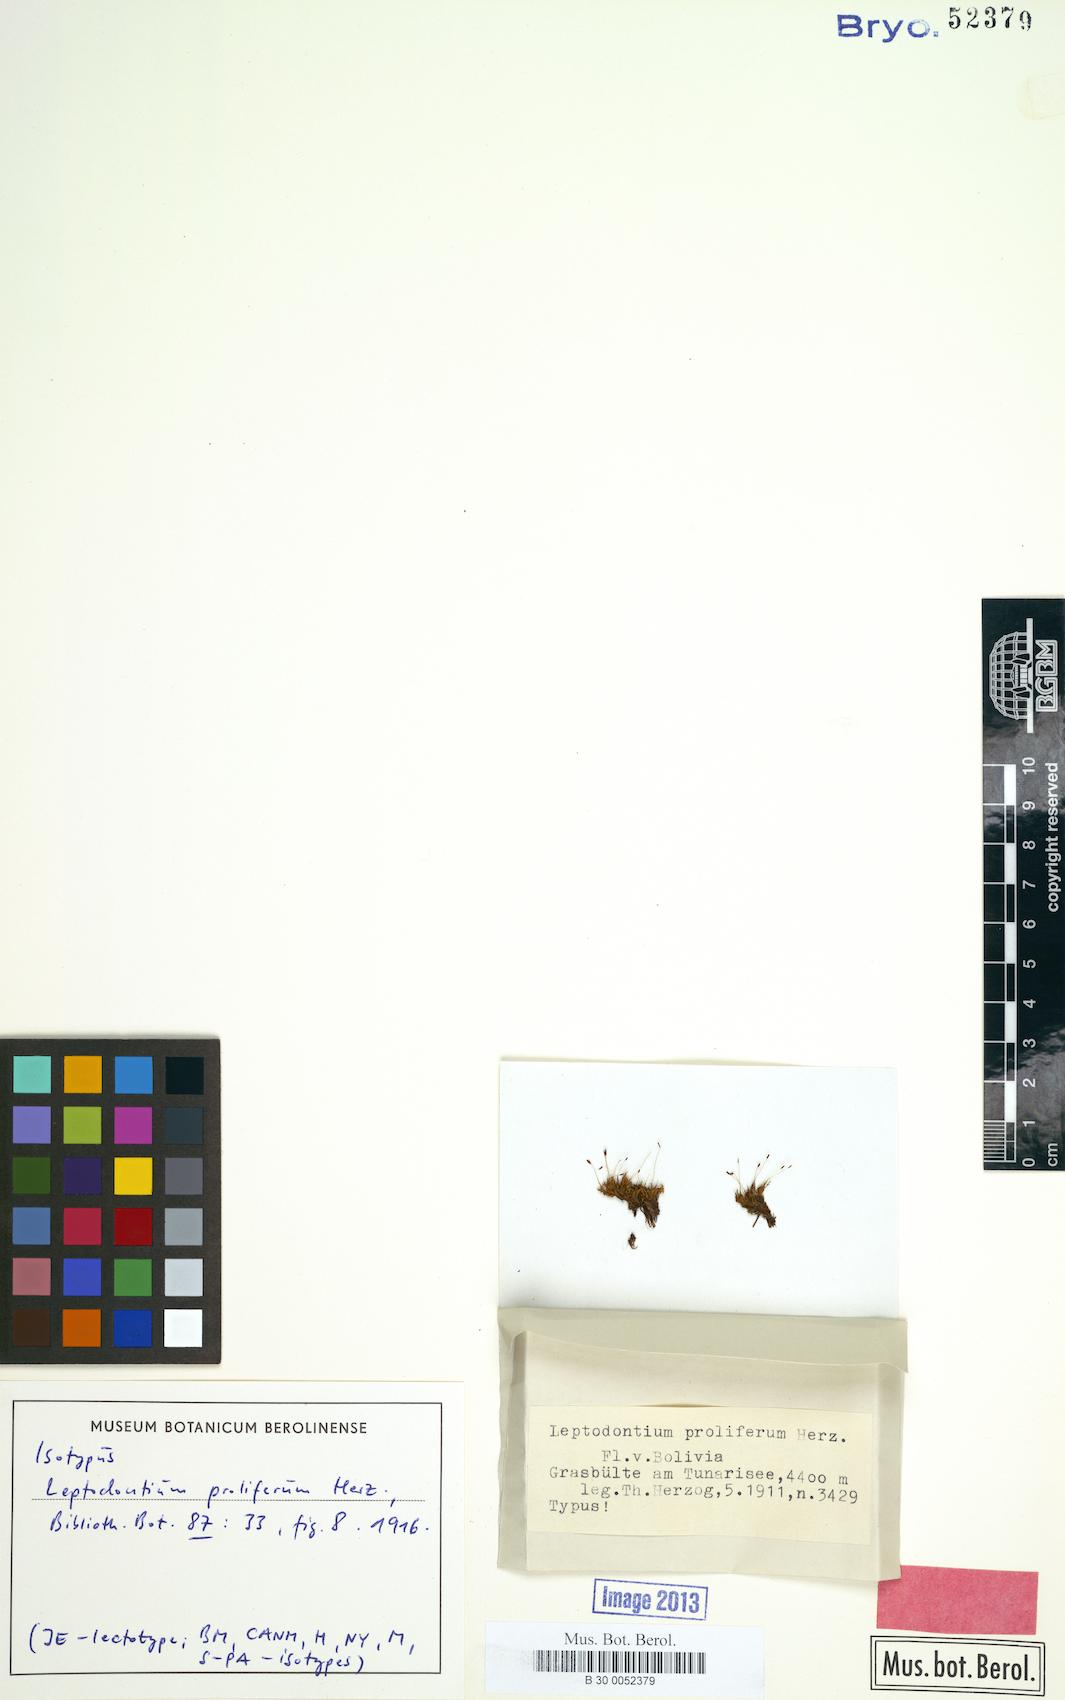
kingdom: Plantae
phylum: Bryophyta
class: Bryopsida
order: Pottiales
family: Pottiaceae
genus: Leptodontium
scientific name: Leptodontium proliferum
